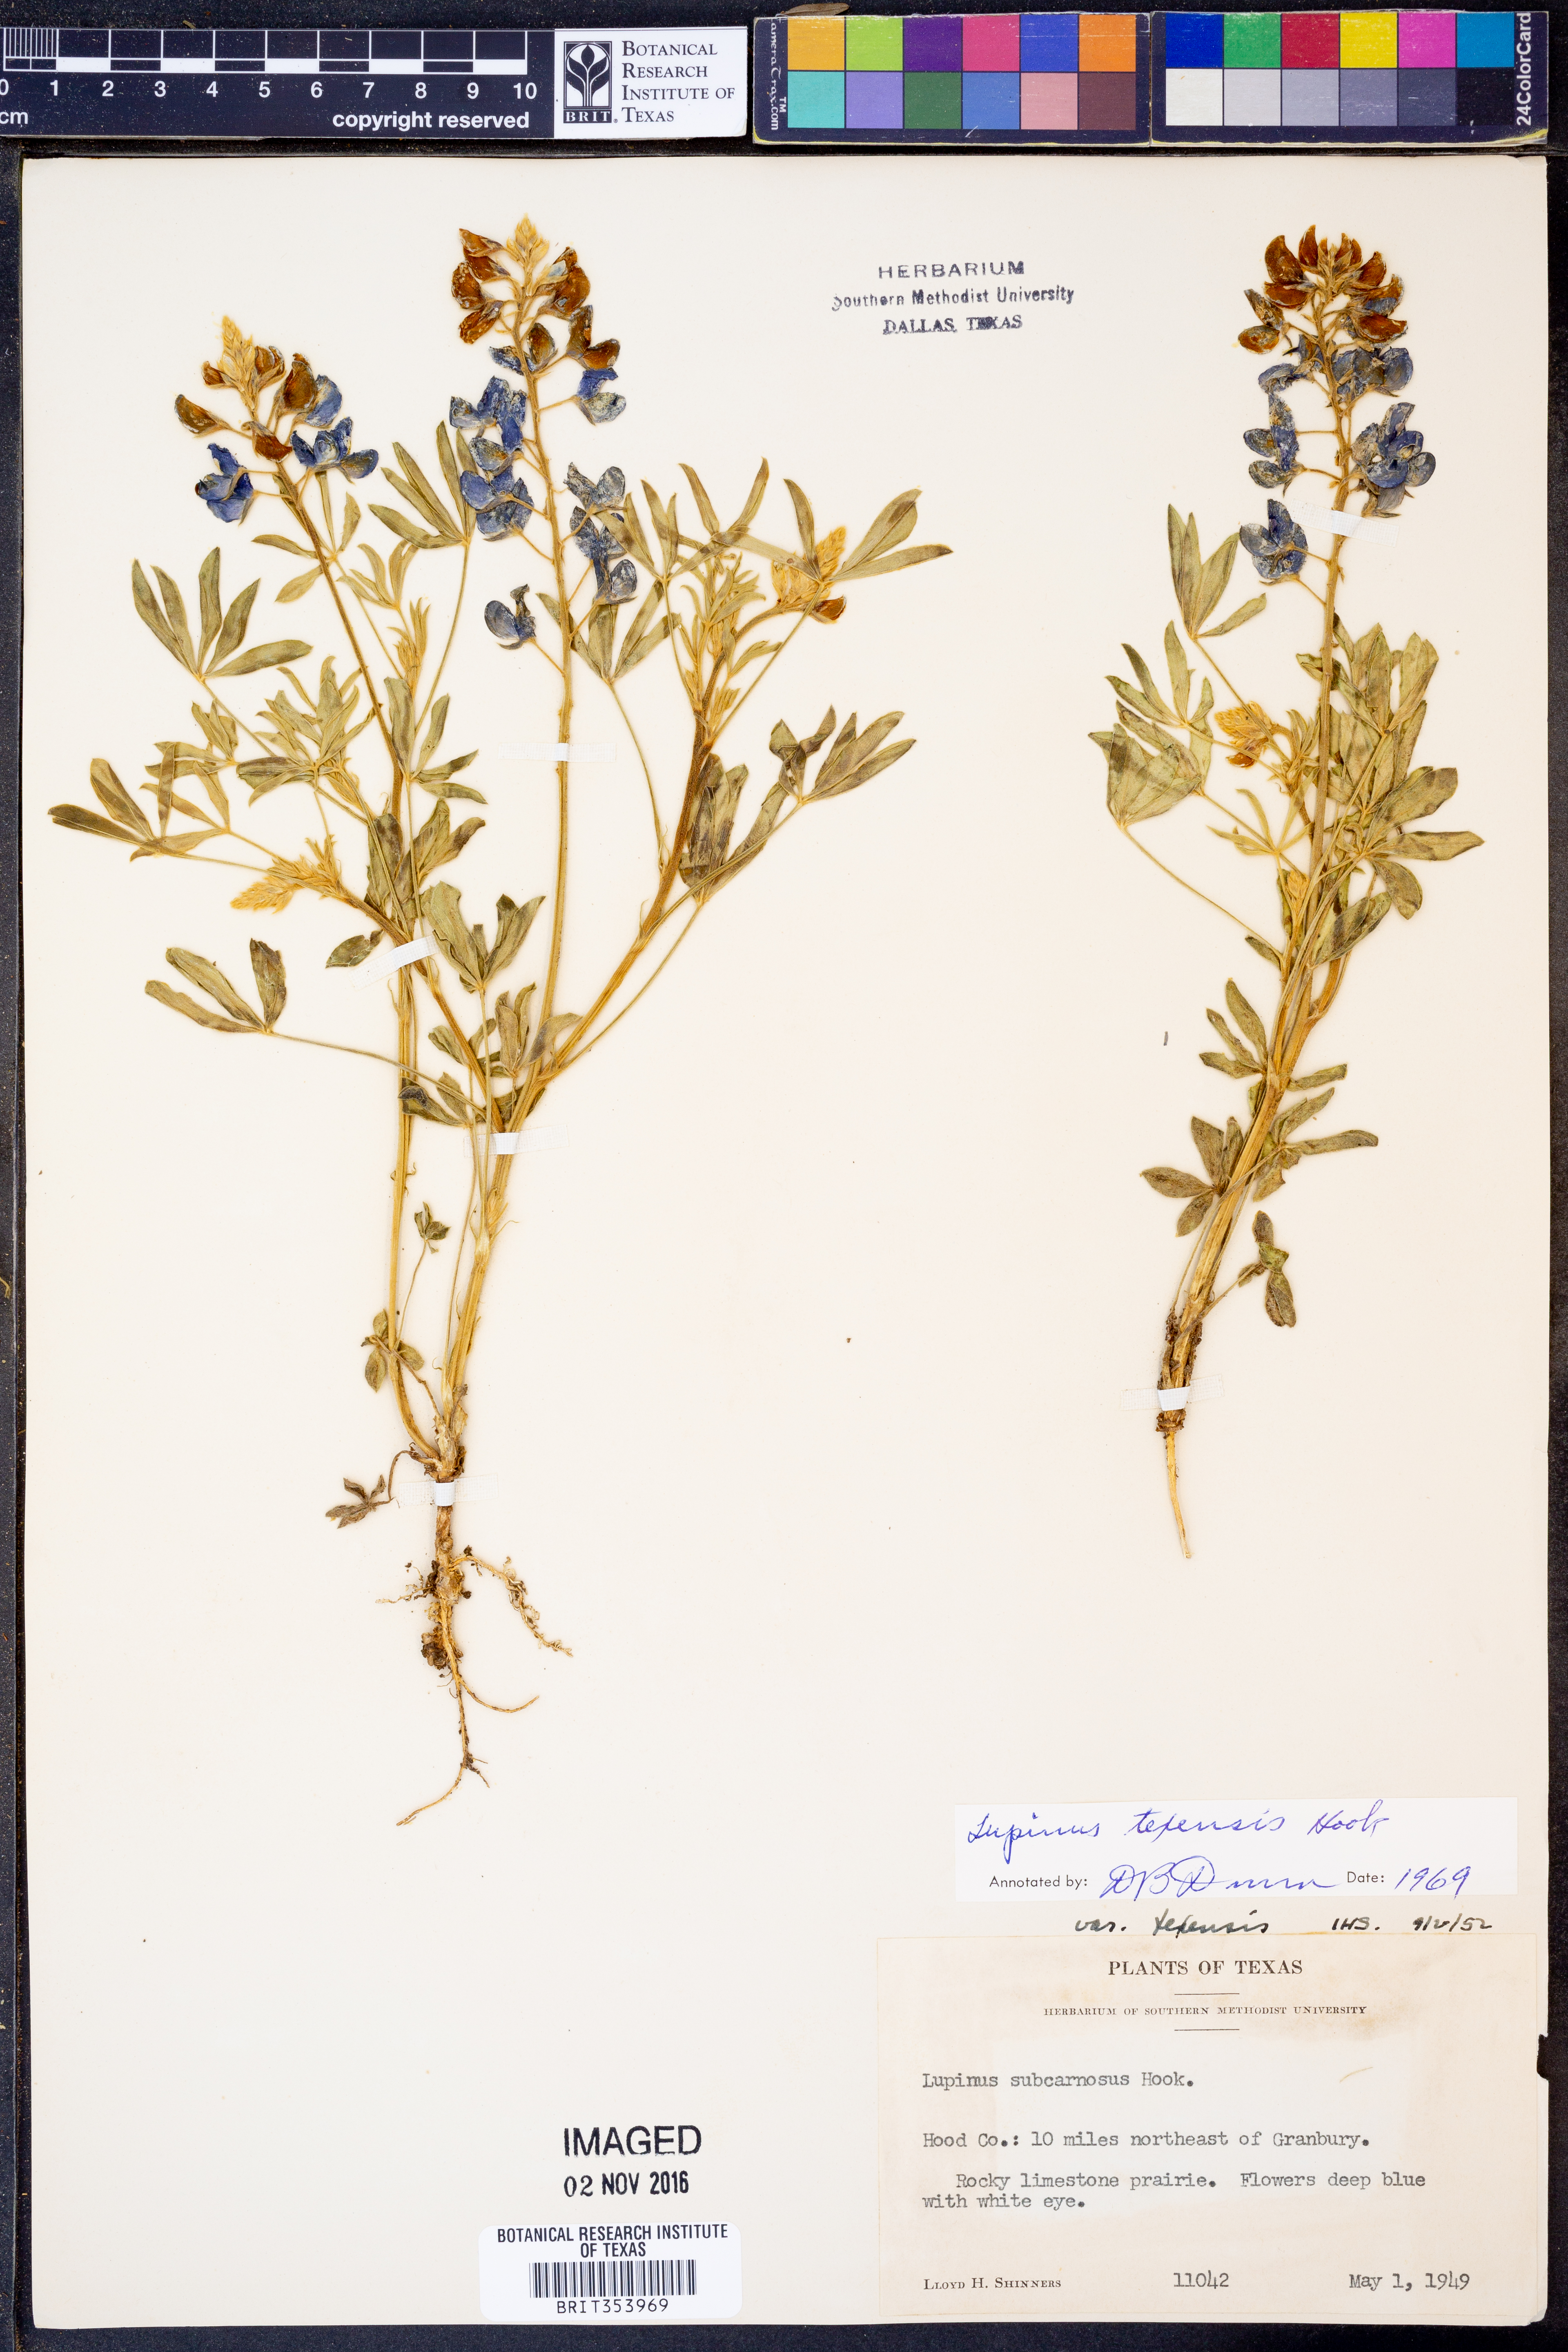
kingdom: Plantae
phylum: Tracheophyta
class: Magnoliopsida
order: Fabales
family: Fabaceae
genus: Lupinus
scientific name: Lupinus texensis
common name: Texas bluebonnet
